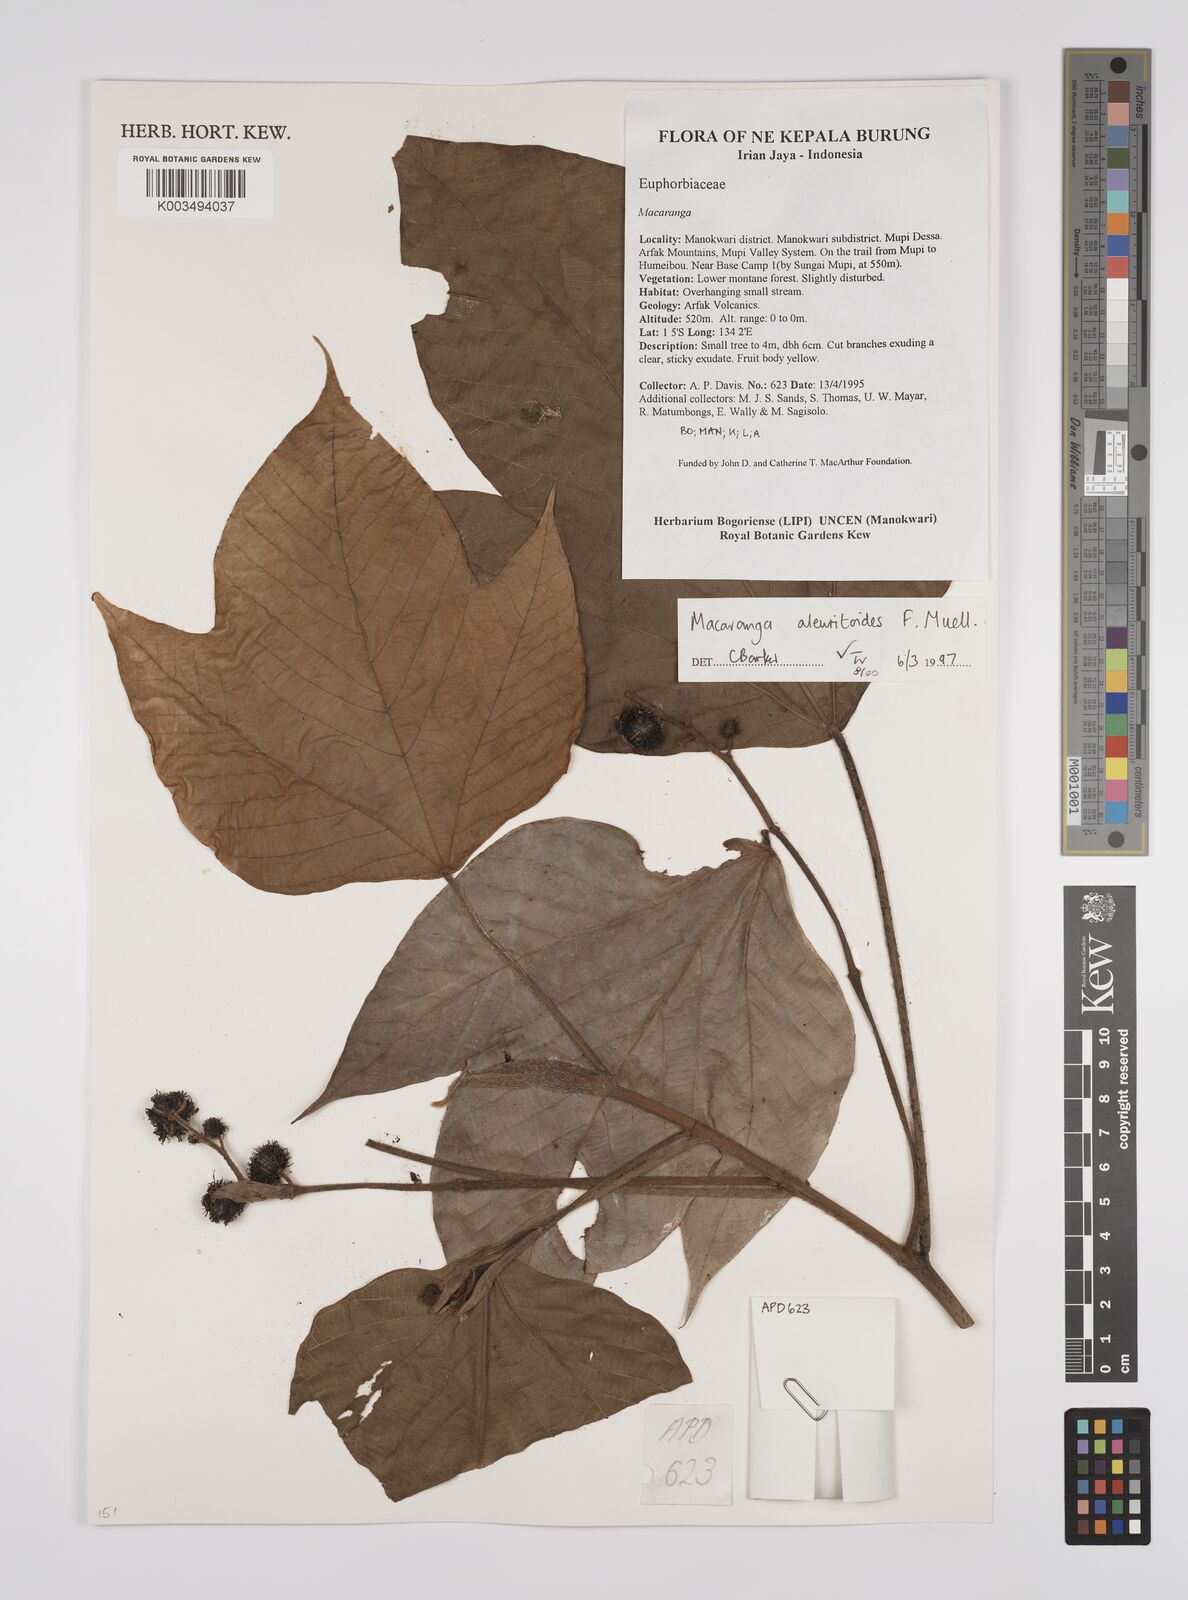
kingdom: Plantae
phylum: Tracheophyta
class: Magnoliopsida
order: Malpighiales
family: Euphorbiaceae
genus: Macaranga
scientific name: Macaranga aleuritoides
